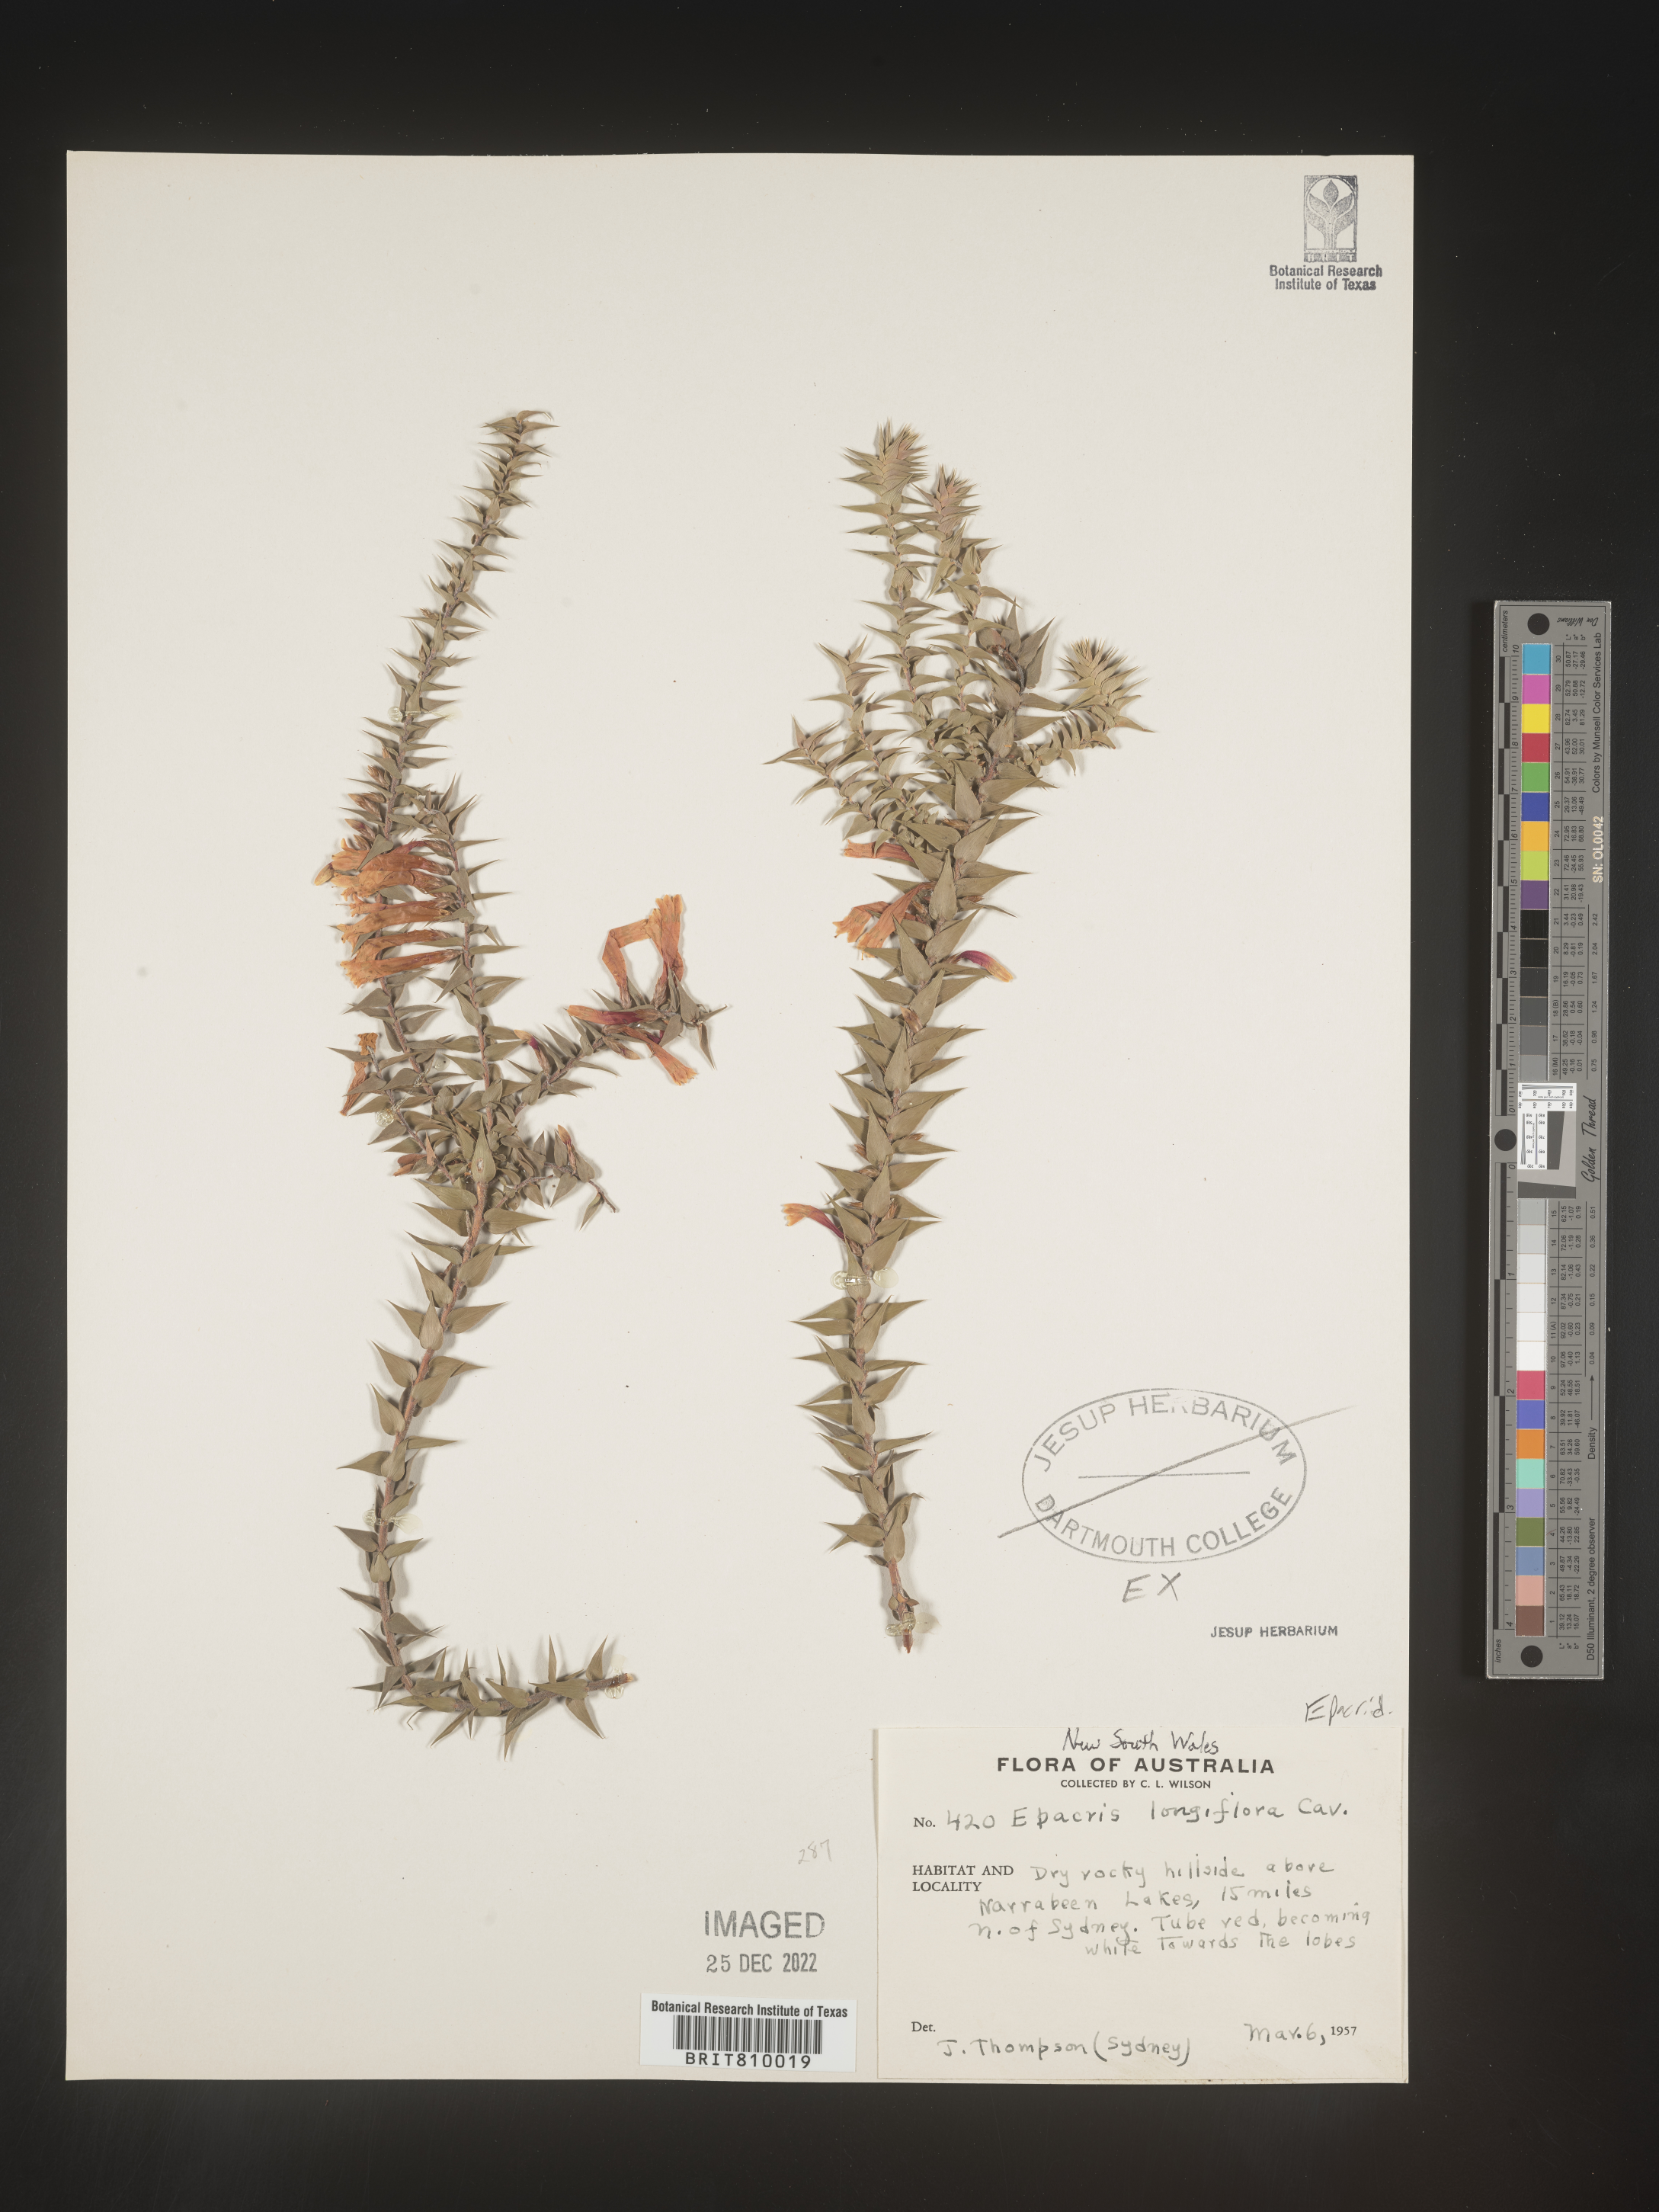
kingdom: Plantae
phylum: Tracheophyta
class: Magnoliopsida
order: Ericales
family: Ericaceae
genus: Epacris
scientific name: Epacris
